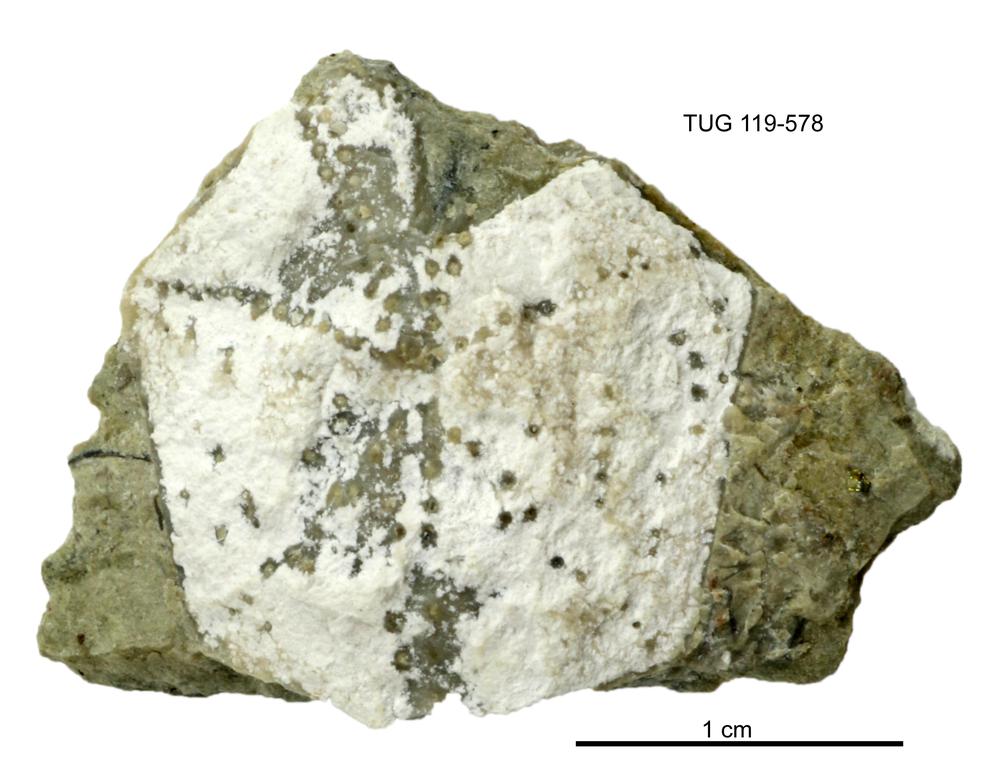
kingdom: Animalia
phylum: Echinodermata
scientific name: Echinodermata
